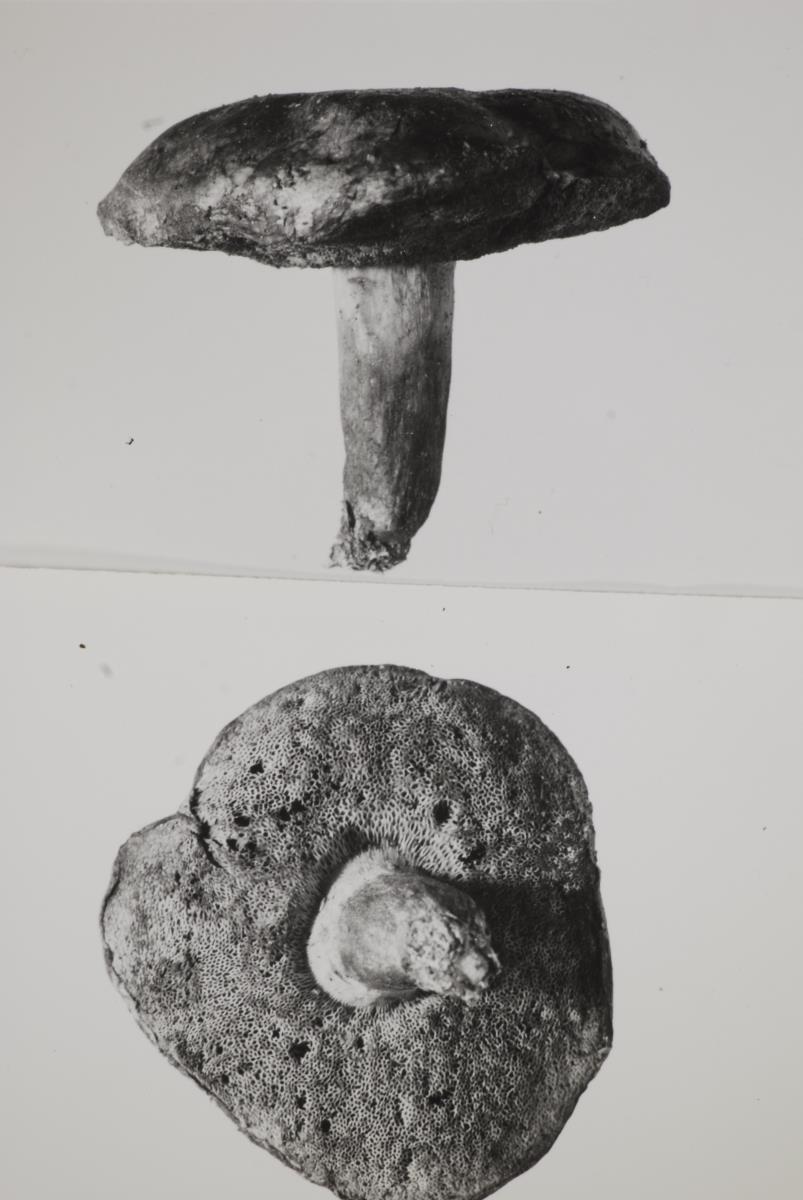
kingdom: Fungi
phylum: Basidiomycota
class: Agaricomycetes
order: Boletales
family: Boletaceae
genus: Xerocomus
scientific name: Xerocomus leptospermi
